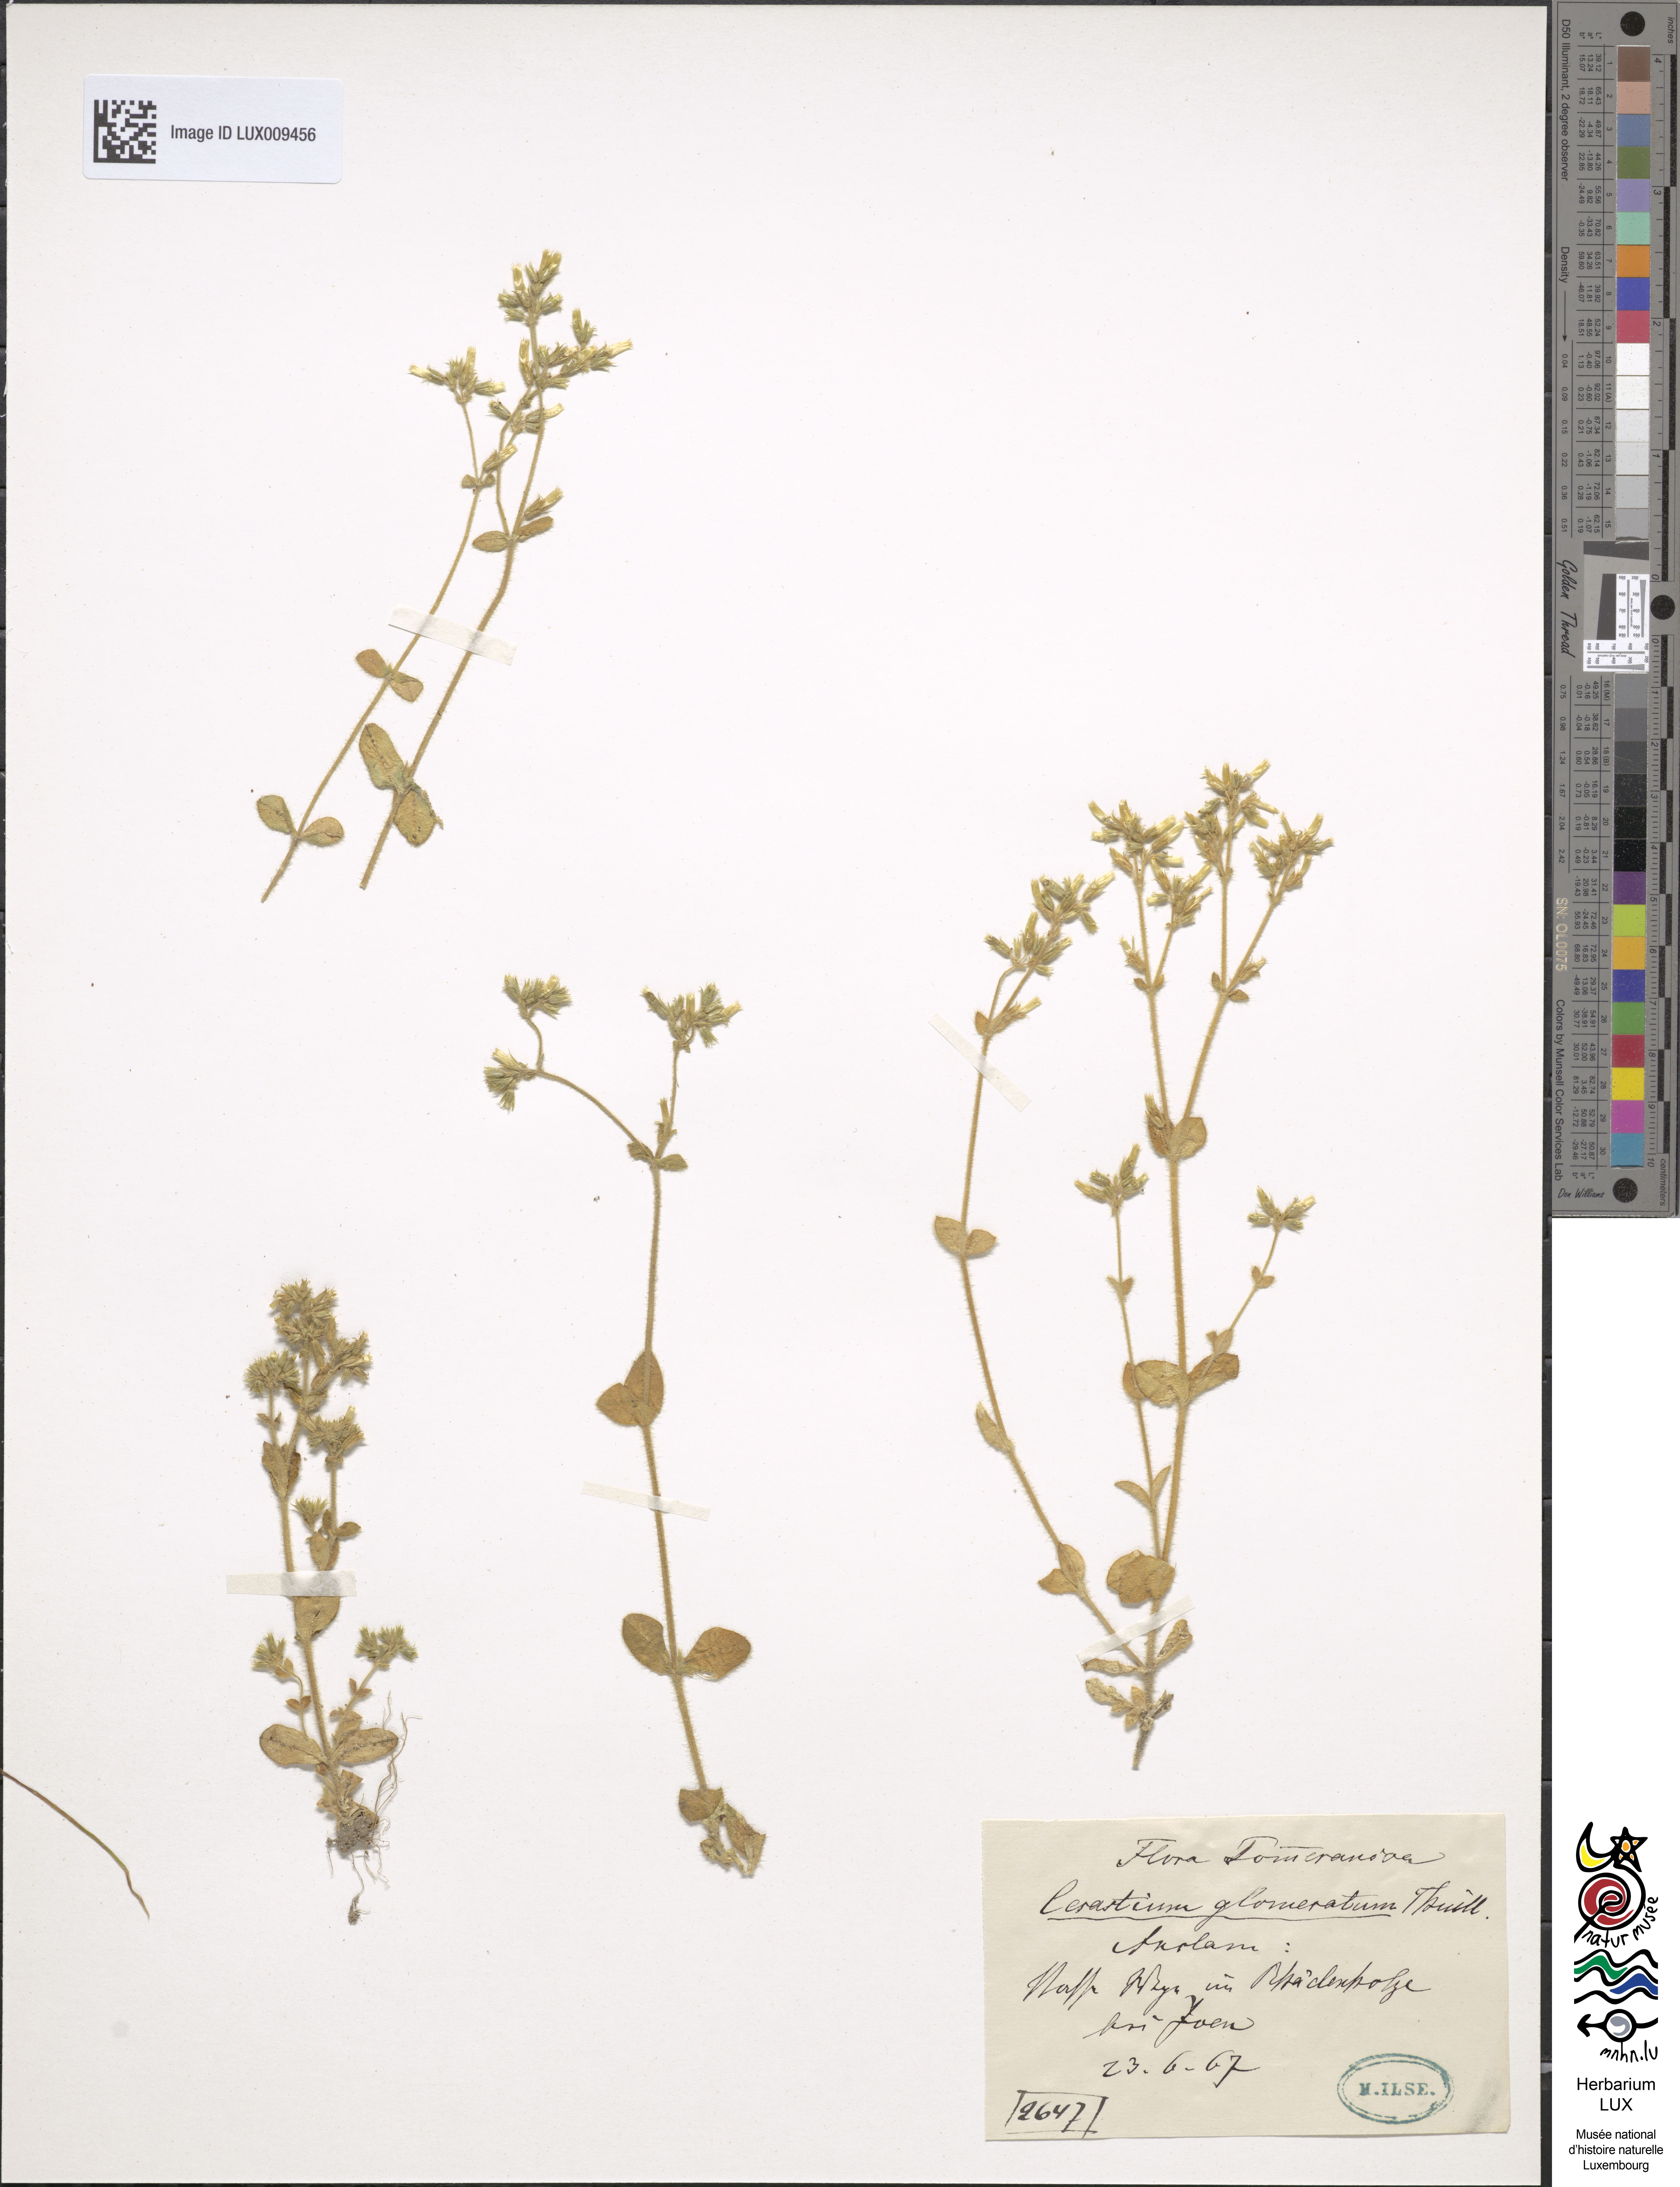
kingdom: Plantae
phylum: Tracheophyta
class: Magnoliopsida
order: Caryophyllales
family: Caryophyllaceae
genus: Cerastium
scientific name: Cerastium glomeratum
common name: Sticky chickweed
